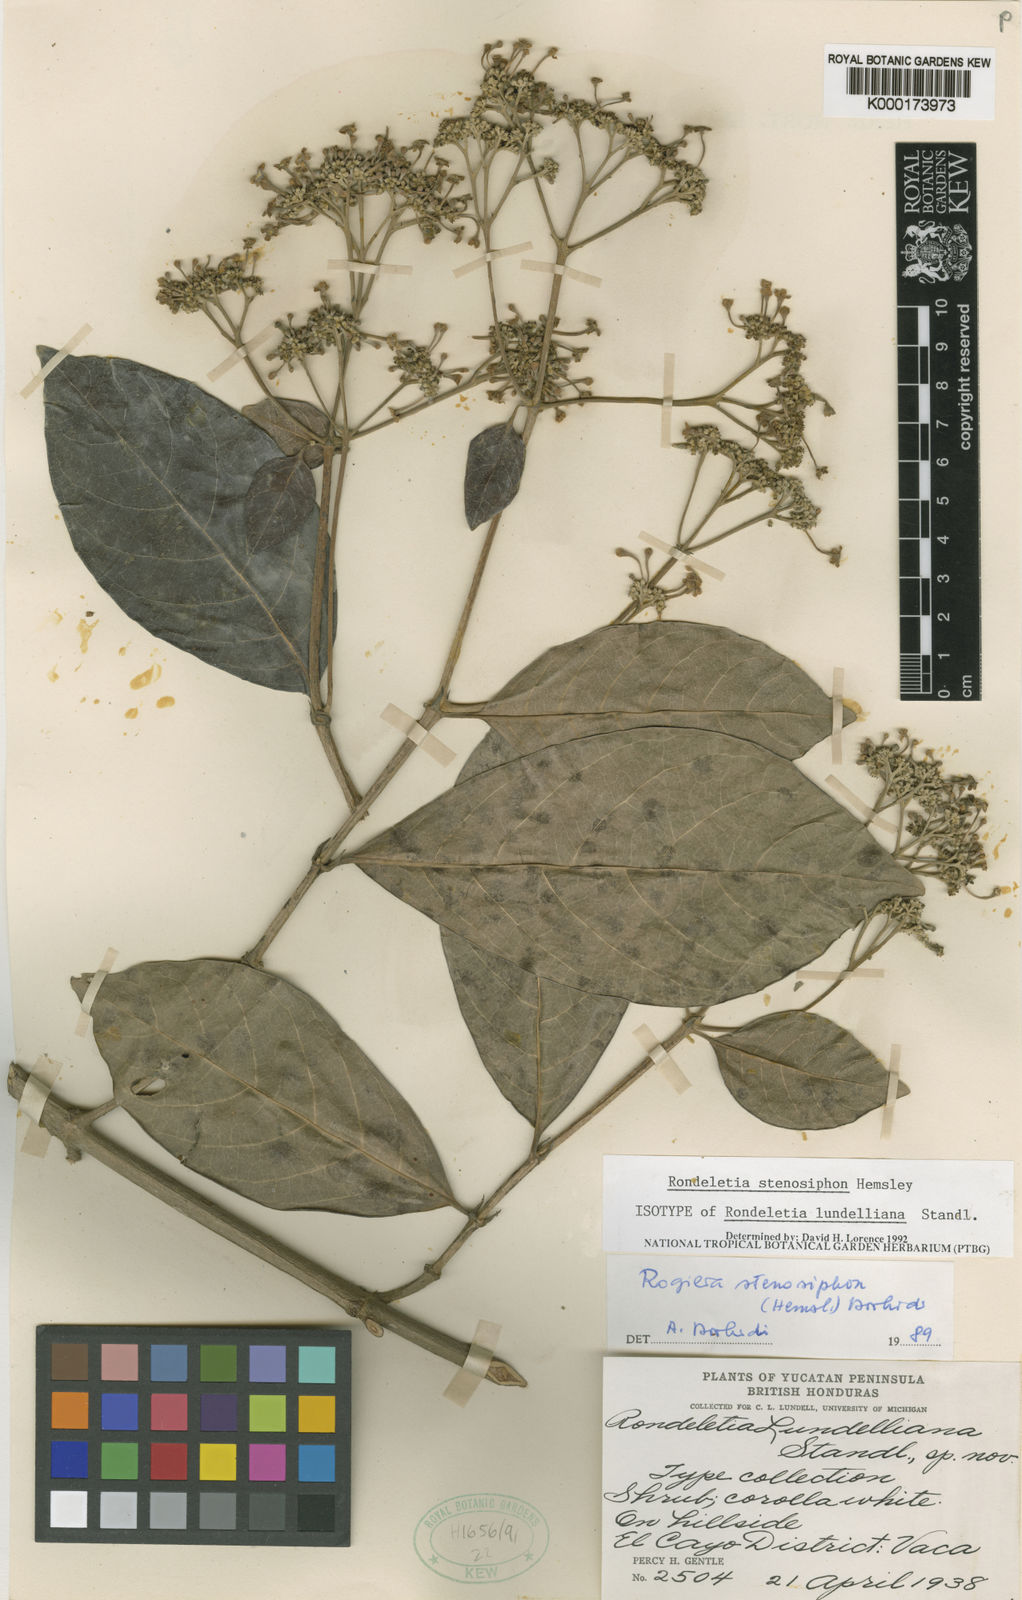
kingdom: Plantae
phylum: Tracheophyta
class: Magnoliopsida
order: Gentianales
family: Rubiaceae
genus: Rogiera
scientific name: Rogiera stenosiphon
